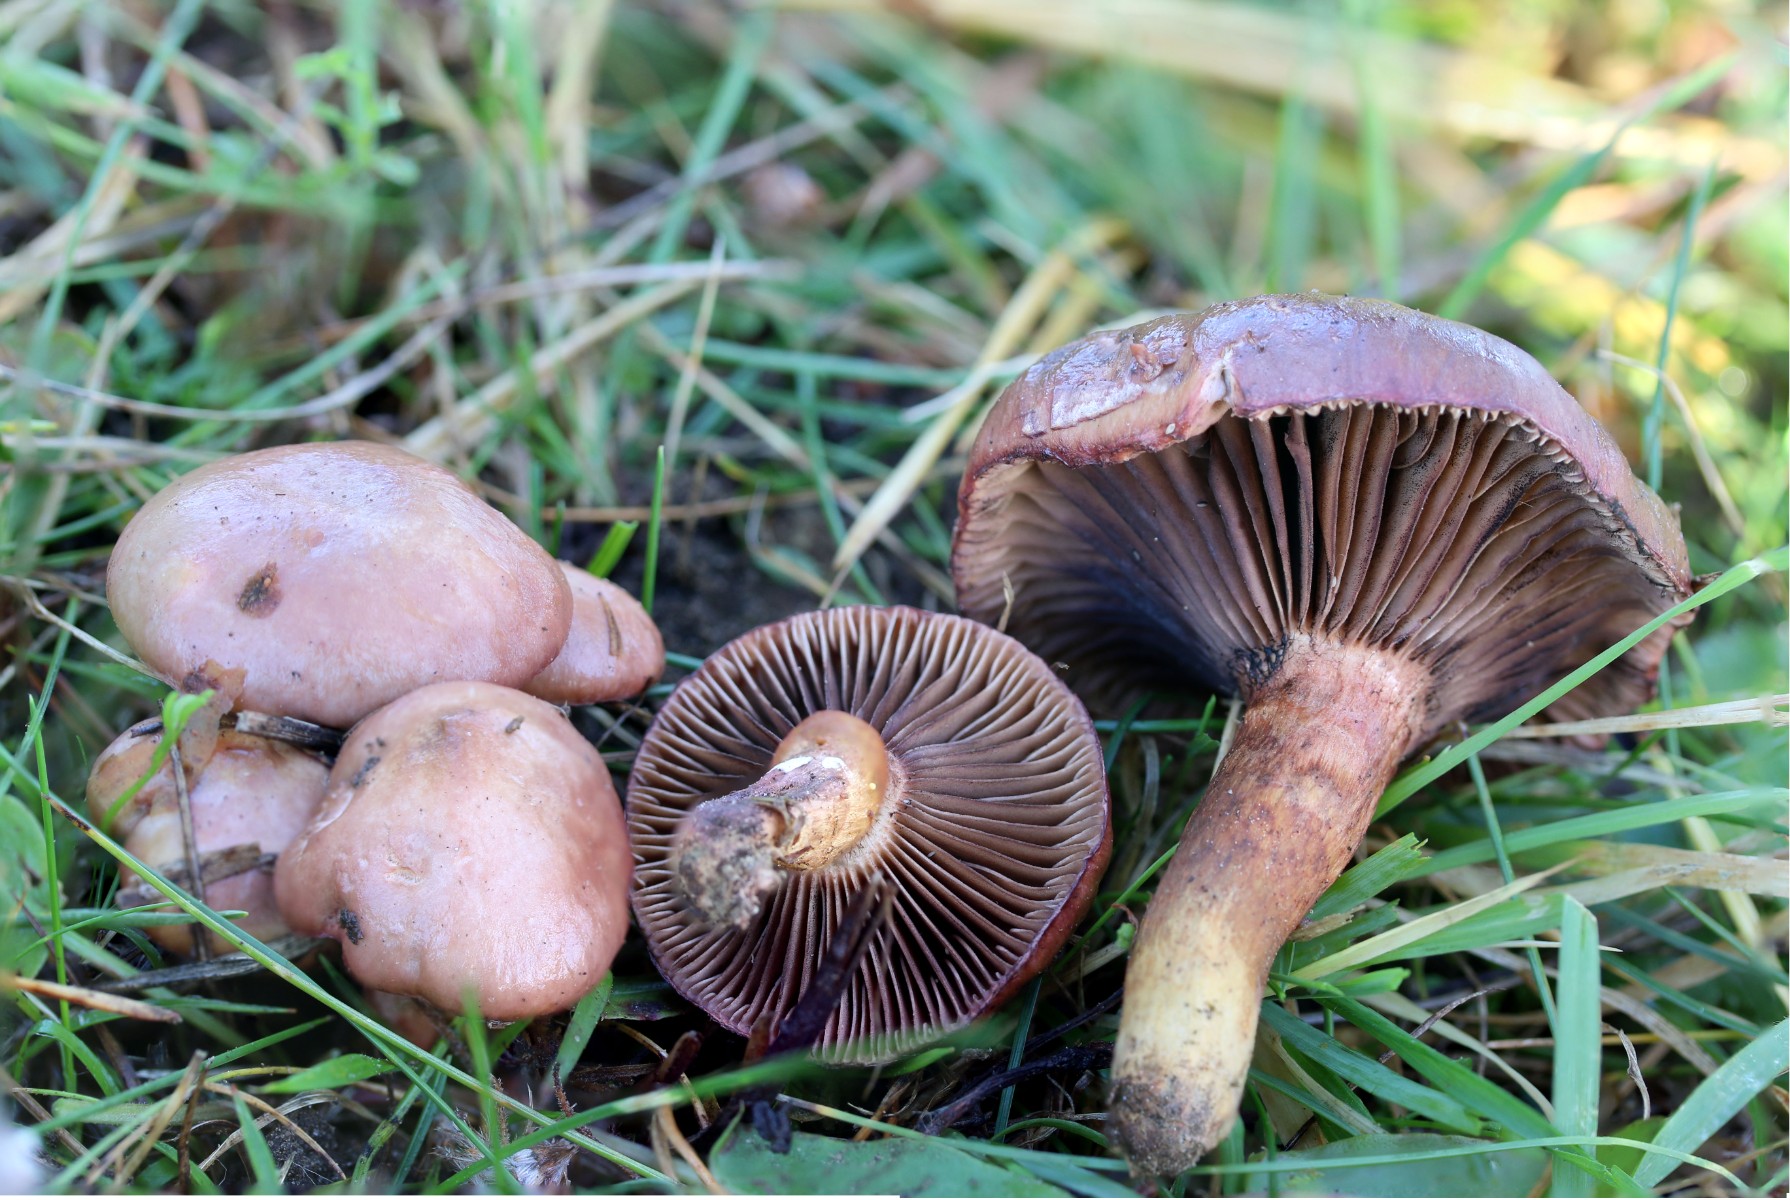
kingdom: Fungi
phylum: Basidiomycota
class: Agaricomycetes
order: Boletales
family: Gomphidiaceae
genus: Chroogomphus
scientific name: Chroogomphus rutilus
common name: brunrød slimslør
